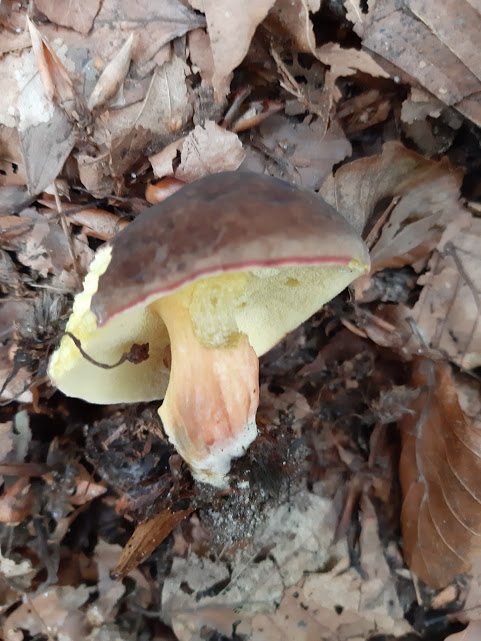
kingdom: Fungi
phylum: Basidiomycota
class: Agaricomycetes
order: Boletales
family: Boletaceae
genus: Xerocomellus
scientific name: Xerocomellus pruinatus
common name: dugget rørhat
